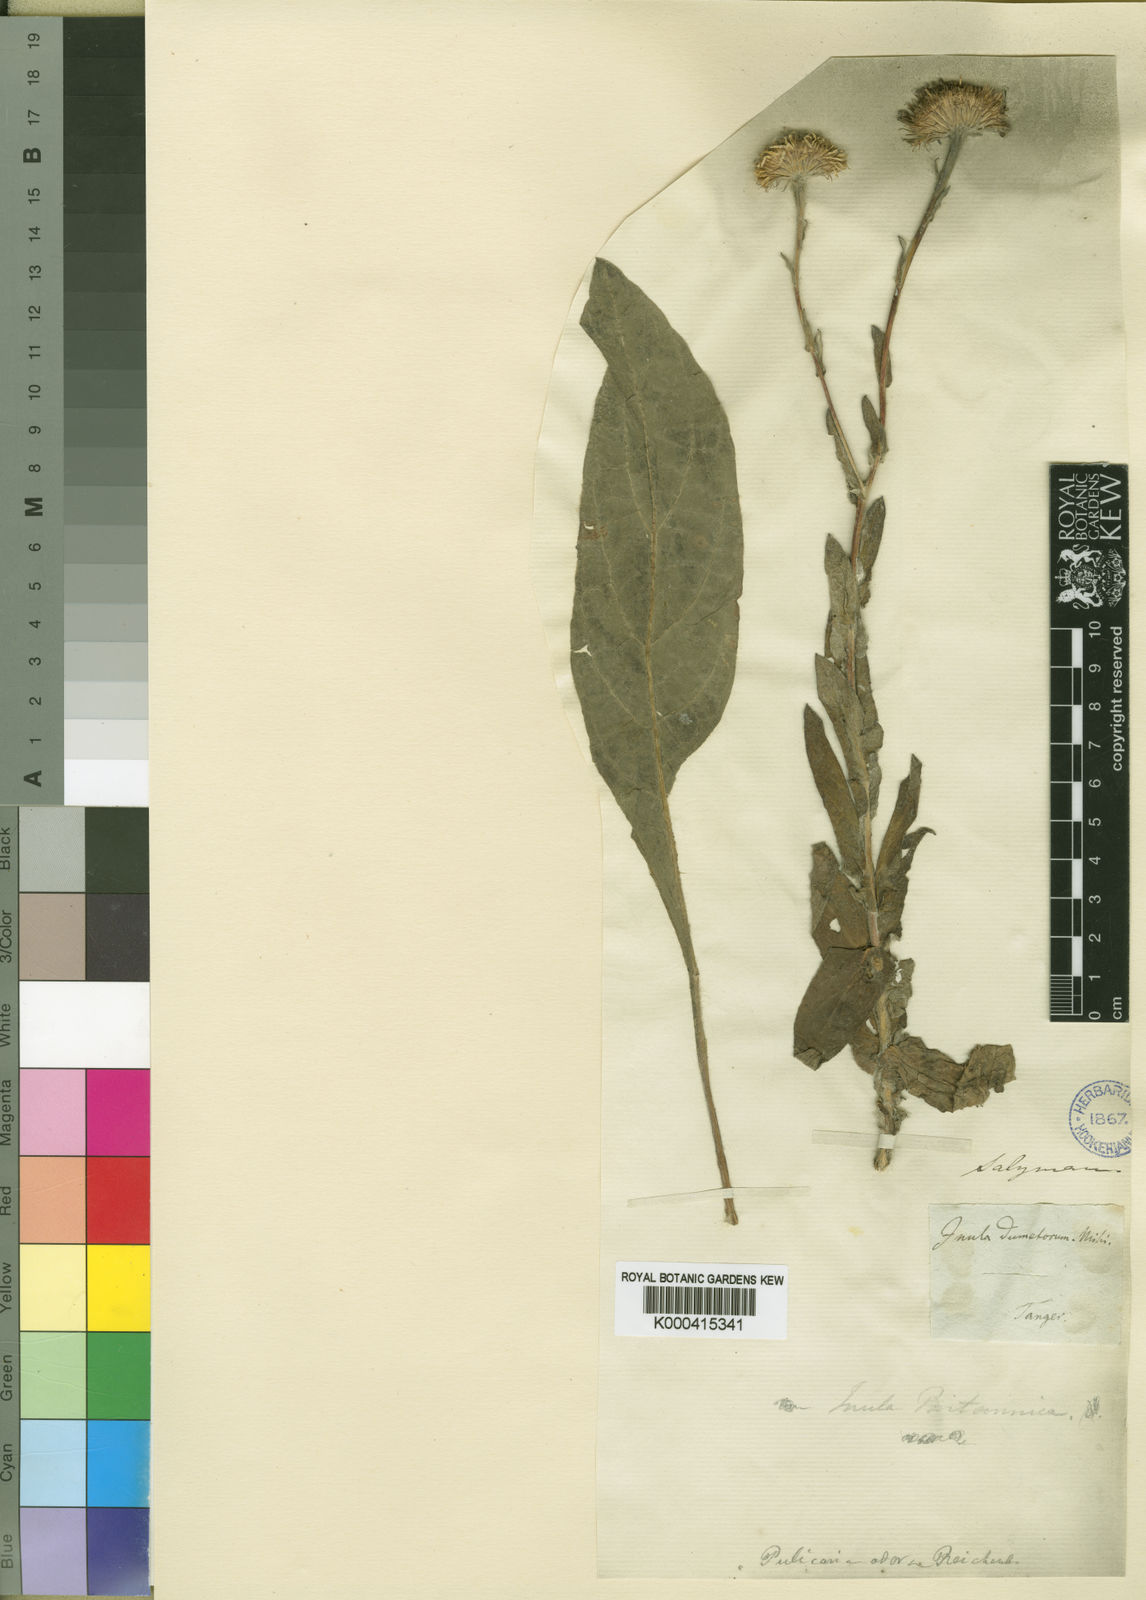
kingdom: Plantae
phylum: Tracheophyta
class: Magnoliopsida
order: Asterales
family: Asteraceae
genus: Pulicaria
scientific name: Pulicaria odora
